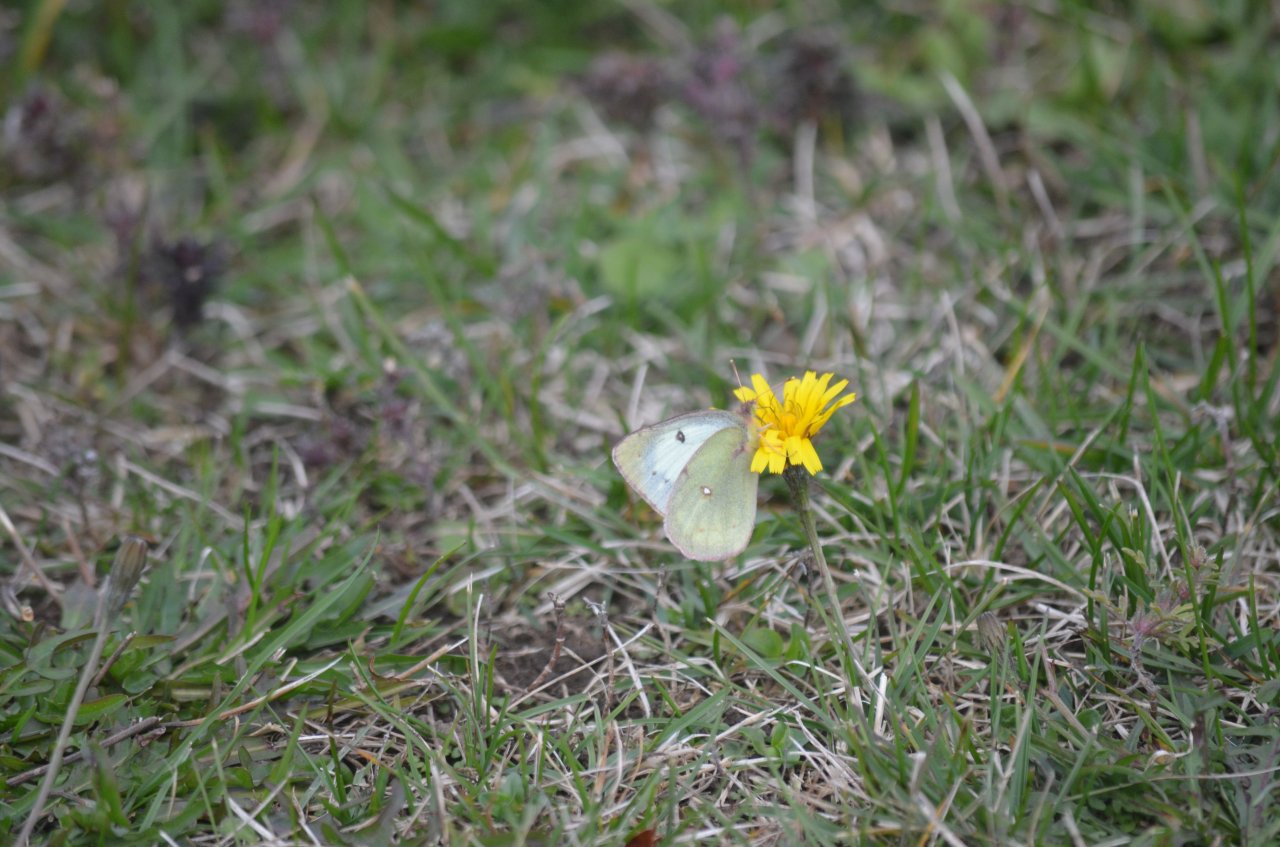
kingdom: Animalia
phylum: Arthropoda
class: Insecta
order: Lepidoptera
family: Pieridae
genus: Colias
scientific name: Colias philodice
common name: Clouded Sulphur
